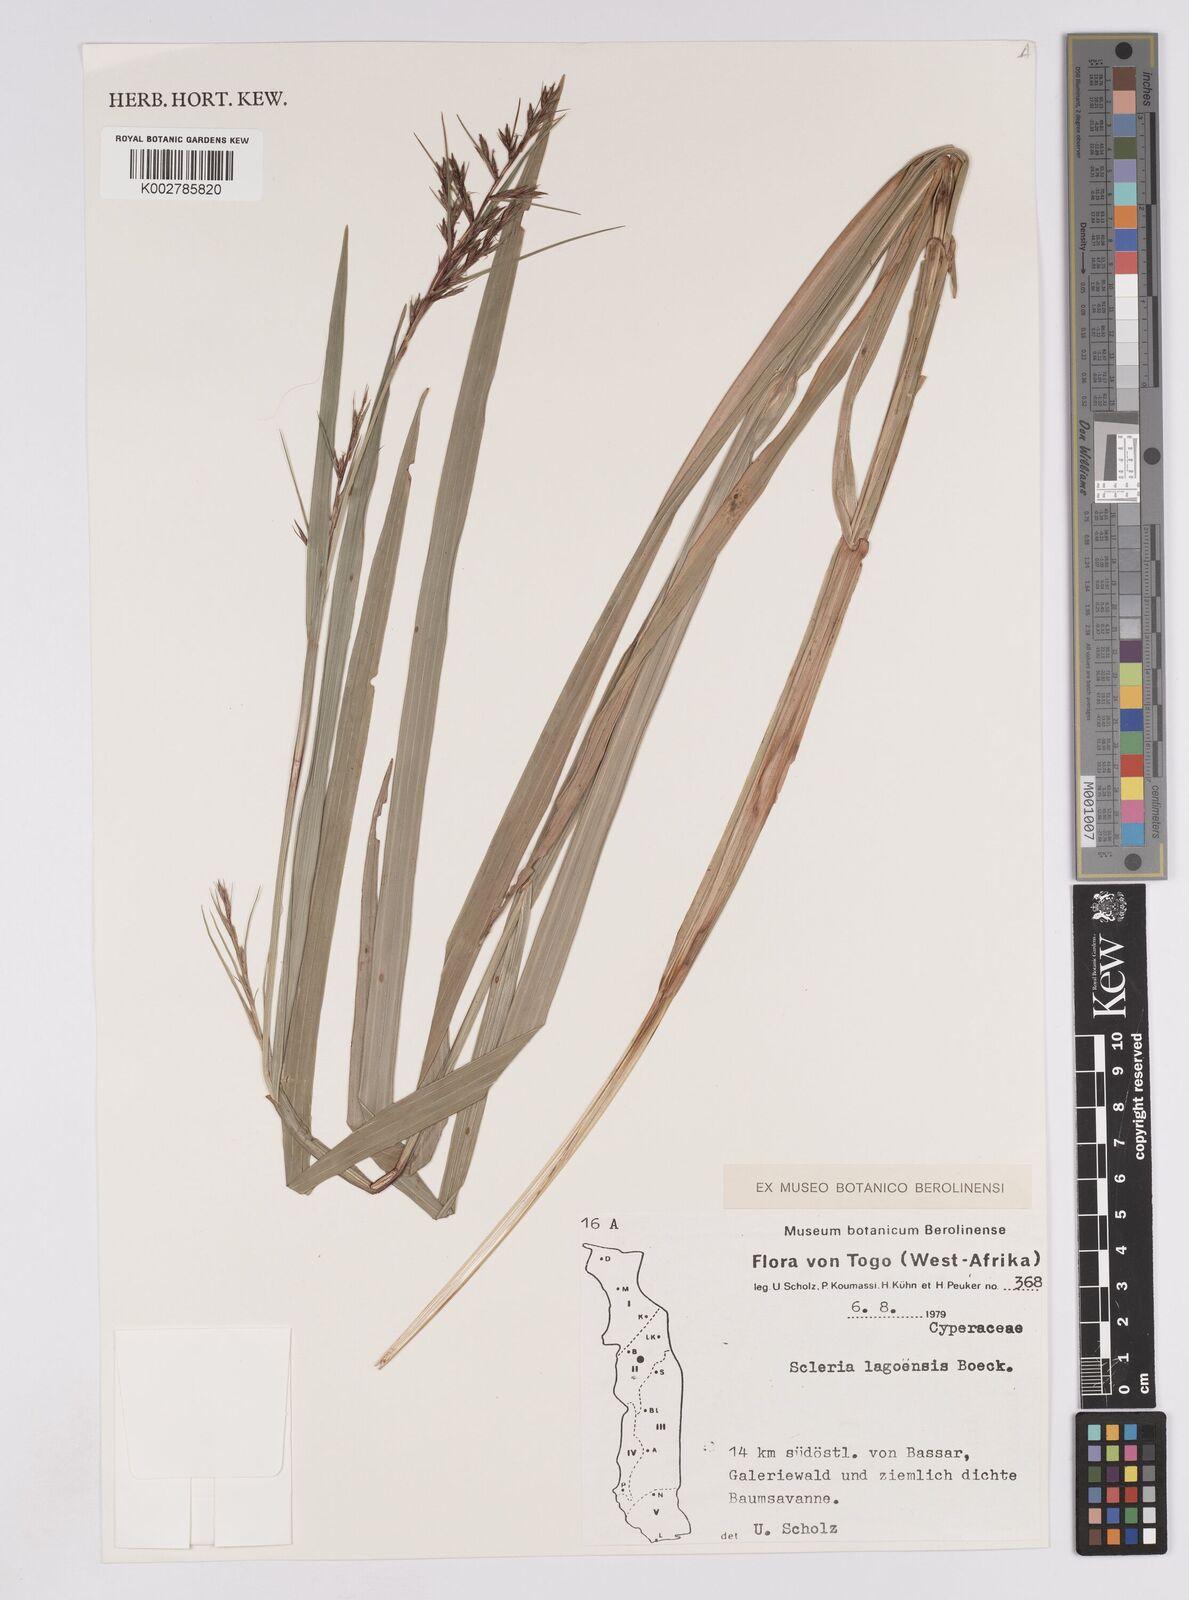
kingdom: Plantae
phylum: Tracheophyta
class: Liliopsida
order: Poales
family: Cyperaceae
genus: Scleria
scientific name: Scleria lagoensis
